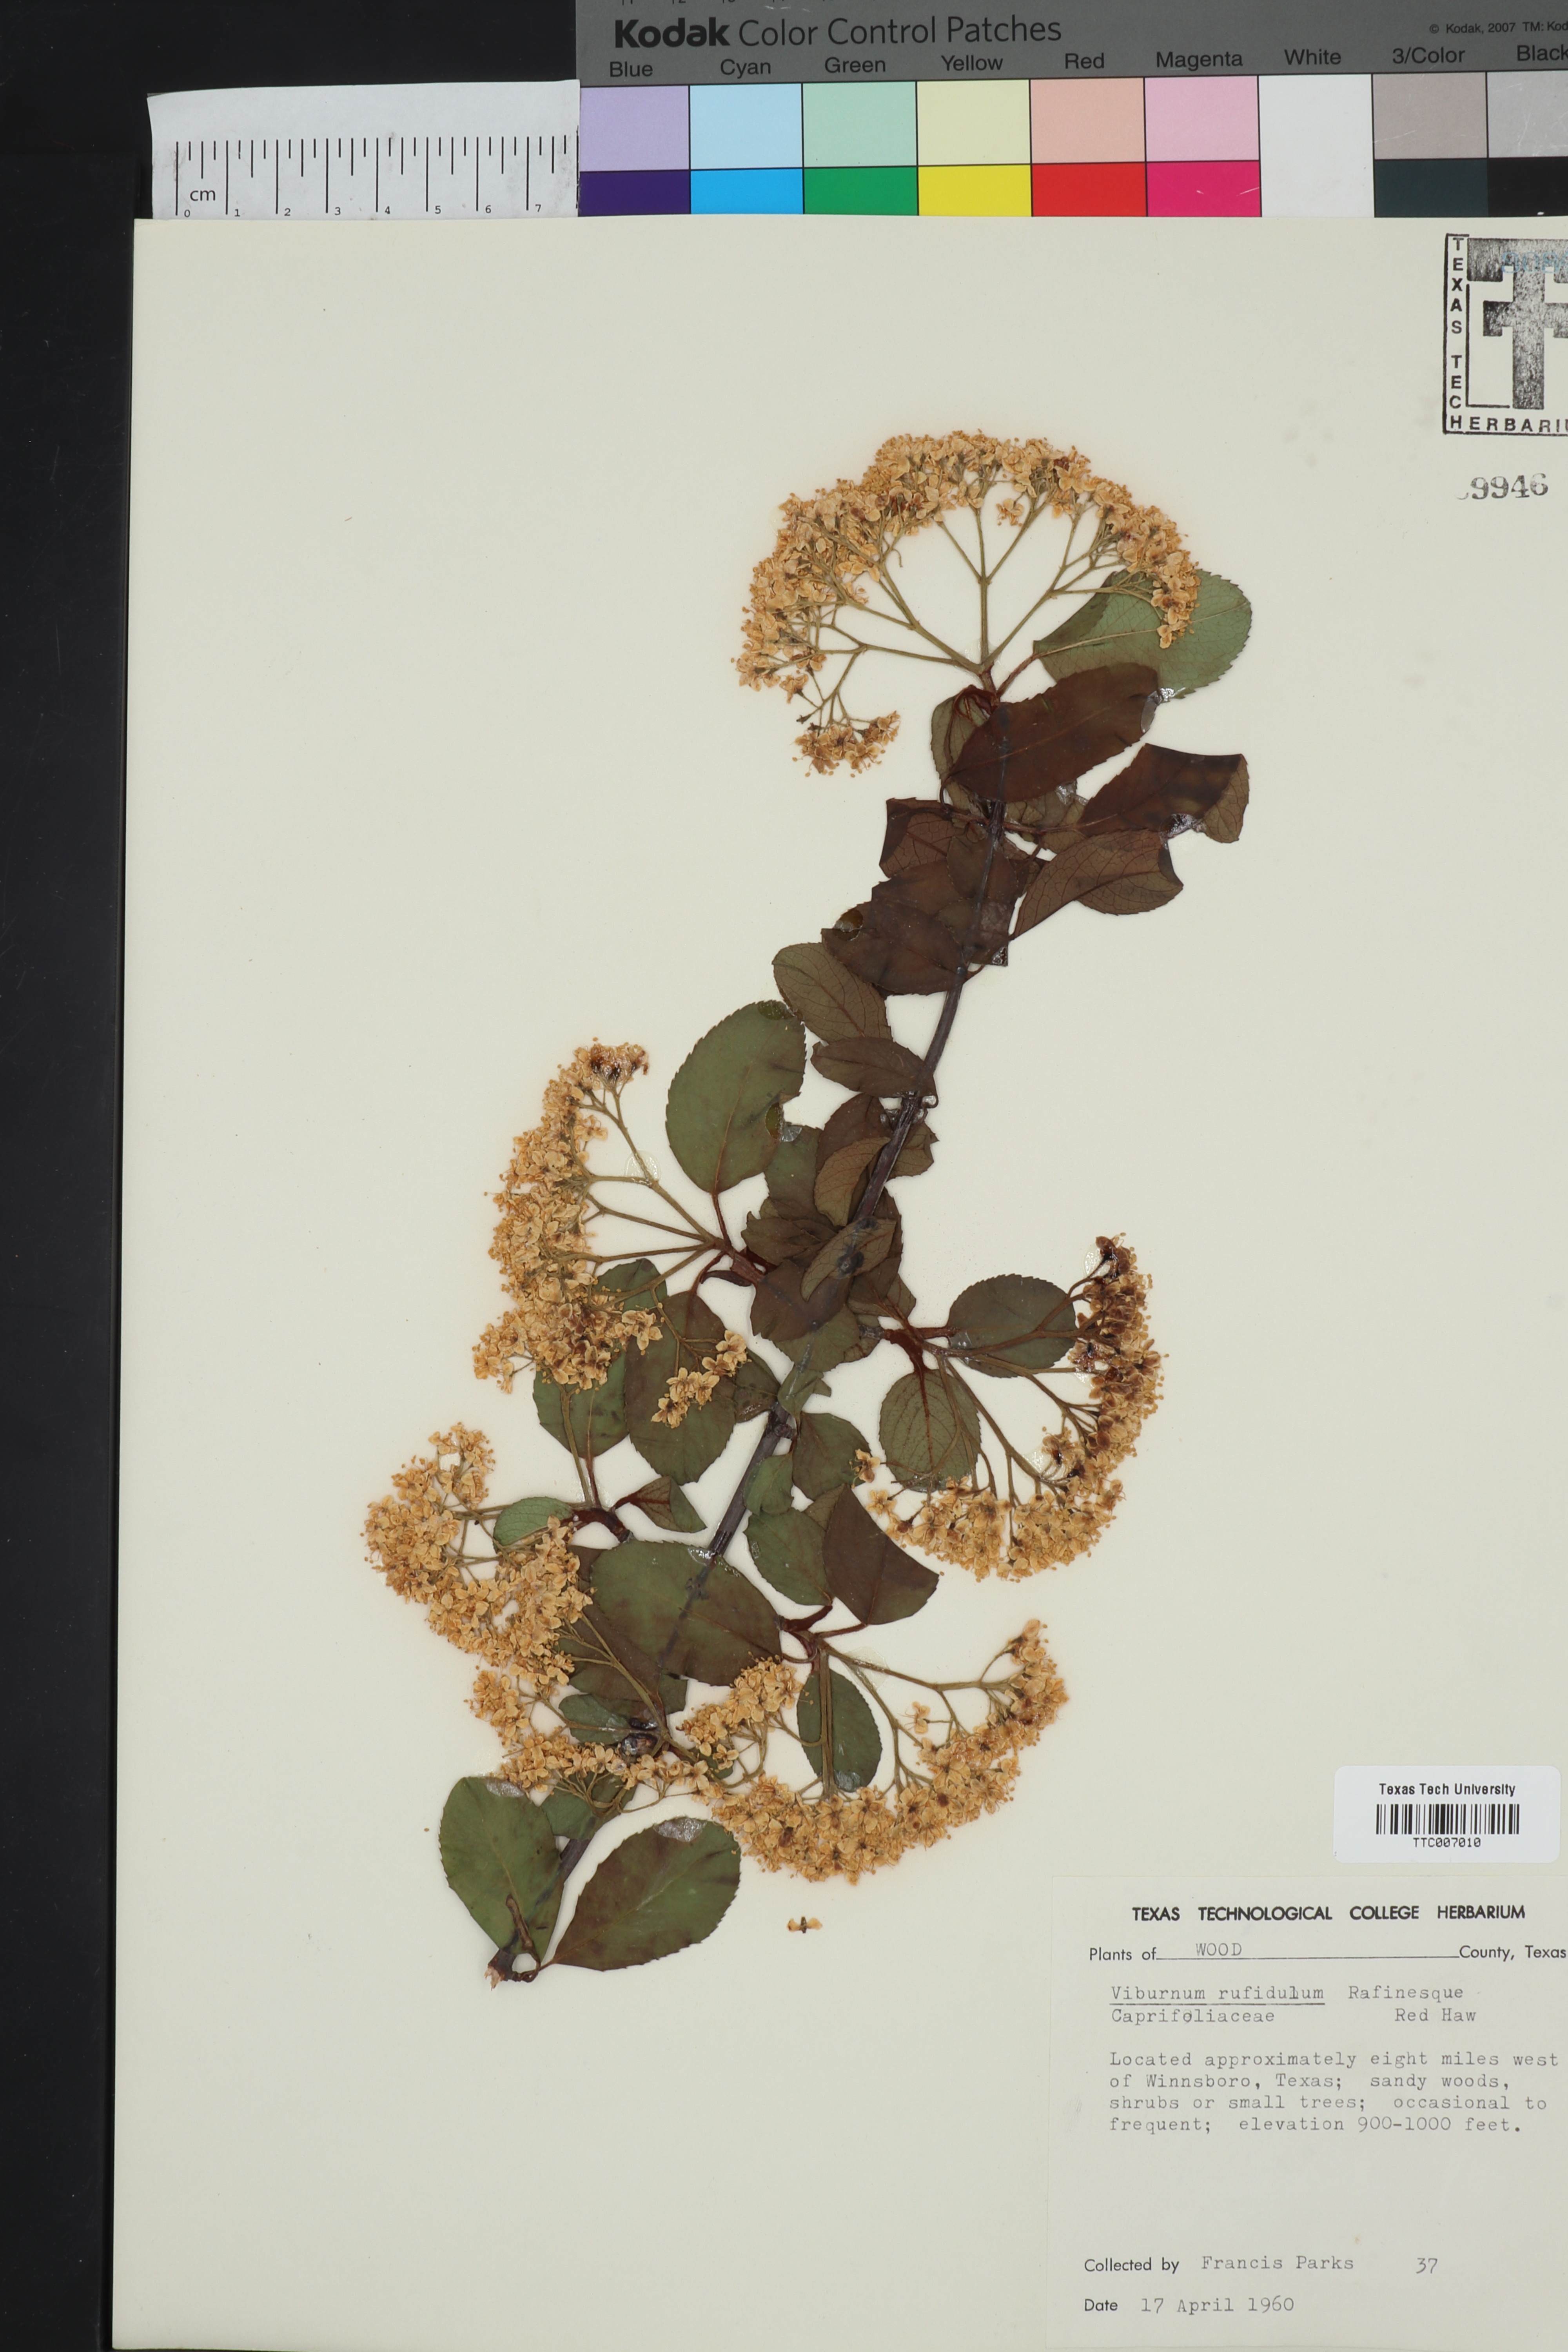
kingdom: Plantae
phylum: Tracheophyta
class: Magnoliopsida
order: Dipsacales
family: Viburnaceae
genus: Viburnum
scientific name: Viburnum rufidulum
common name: Blue haw
